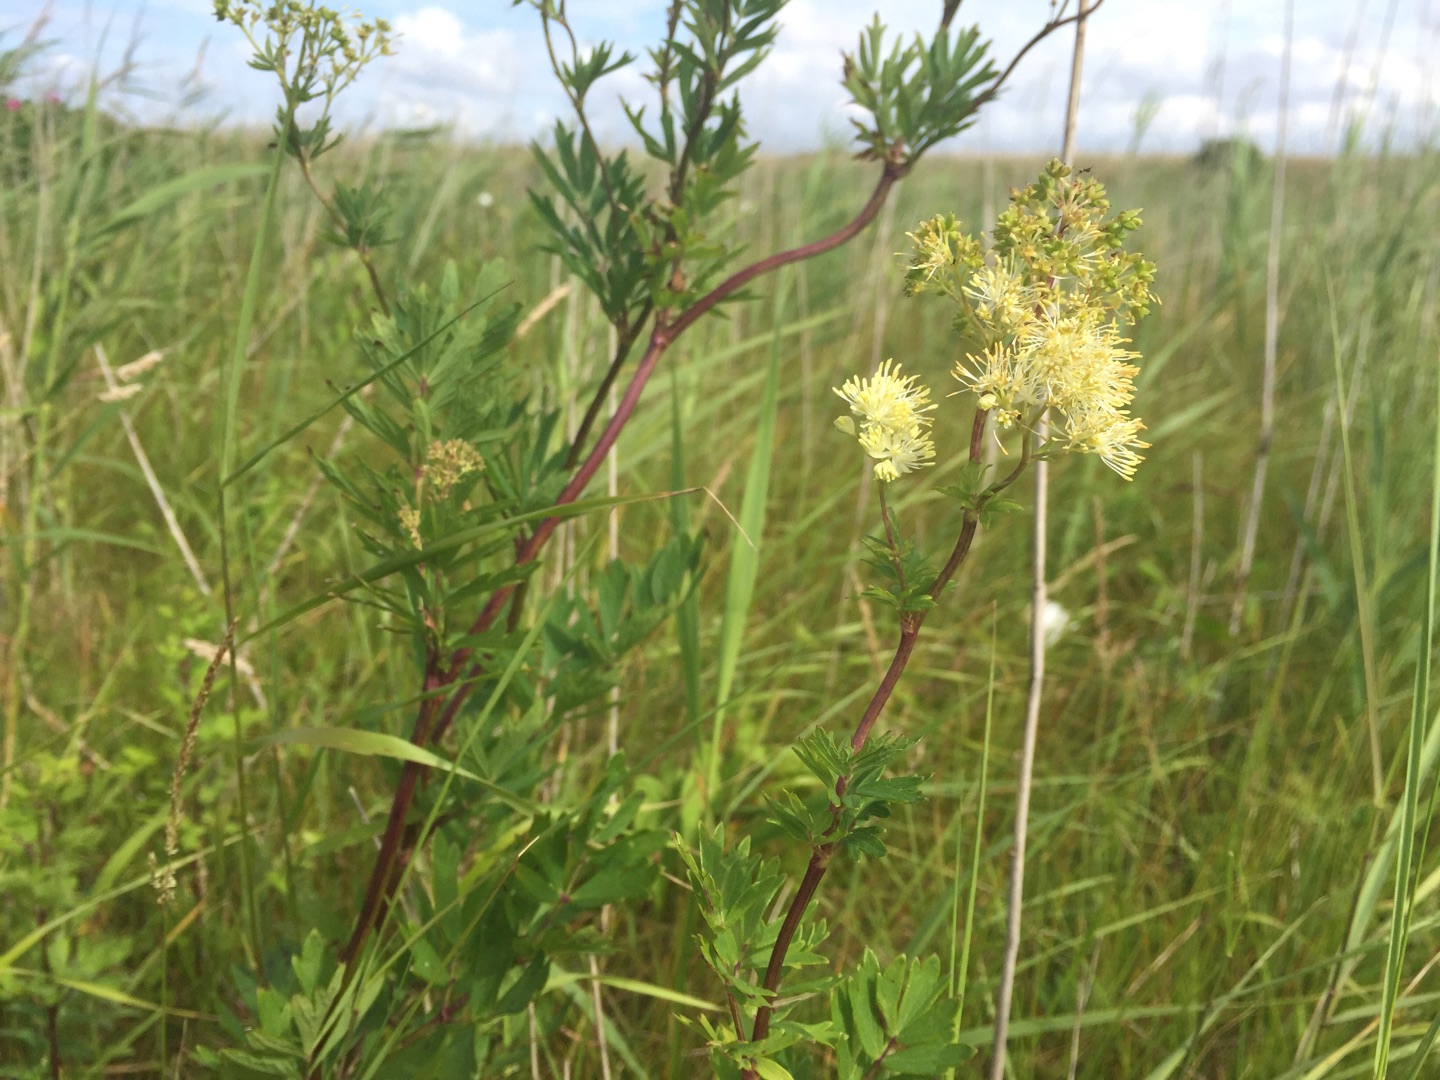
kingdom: Plantae
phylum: Tracheophyta
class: Magnoliopsida
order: Ranunculales
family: Ranunculaceae
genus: Thalictrum
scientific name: Thalictrum flavum
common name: Gul frøstjerne
